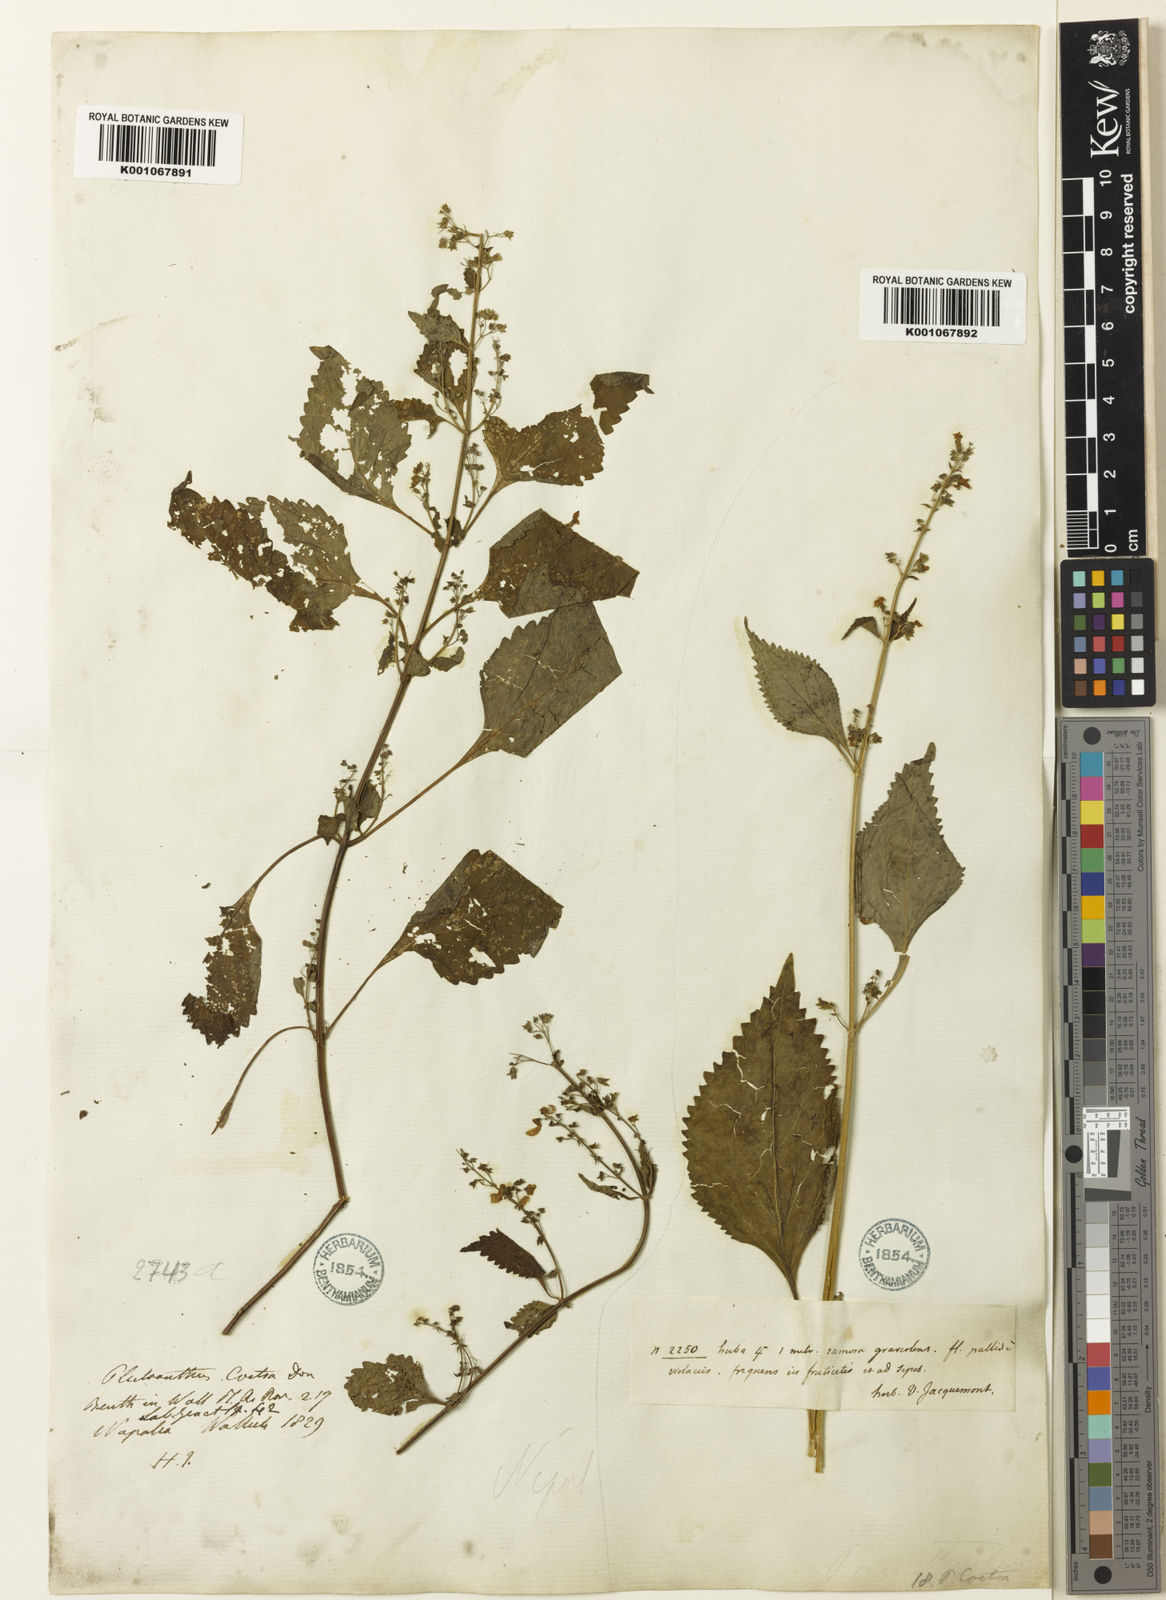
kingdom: Plantae
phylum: Tracheophyta
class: Magnoliopsida
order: Lamiales
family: Lamiaceae
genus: Isodon
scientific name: Isodon
